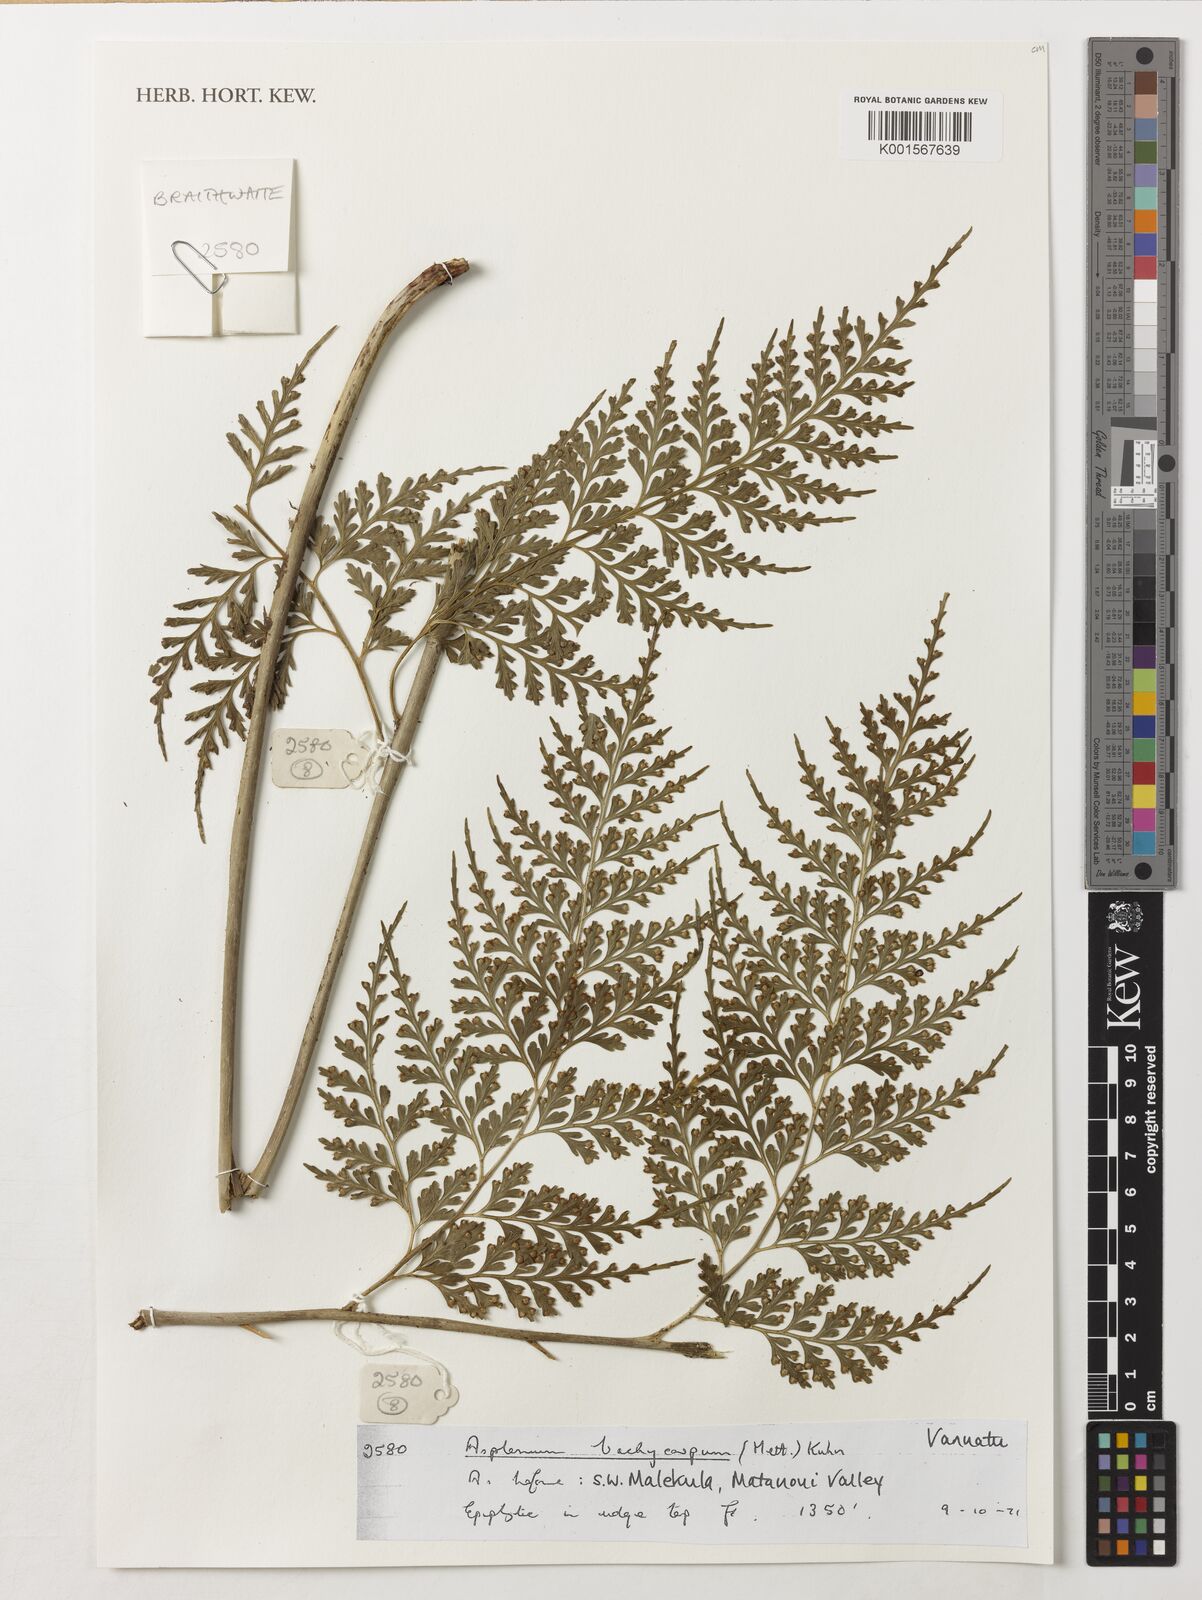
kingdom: Plantae
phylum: Tracheophyta
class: Polypodiopsida
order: Polypodiales
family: Aspleniaceae
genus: Asplenium
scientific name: Asplenium brachycarpum
